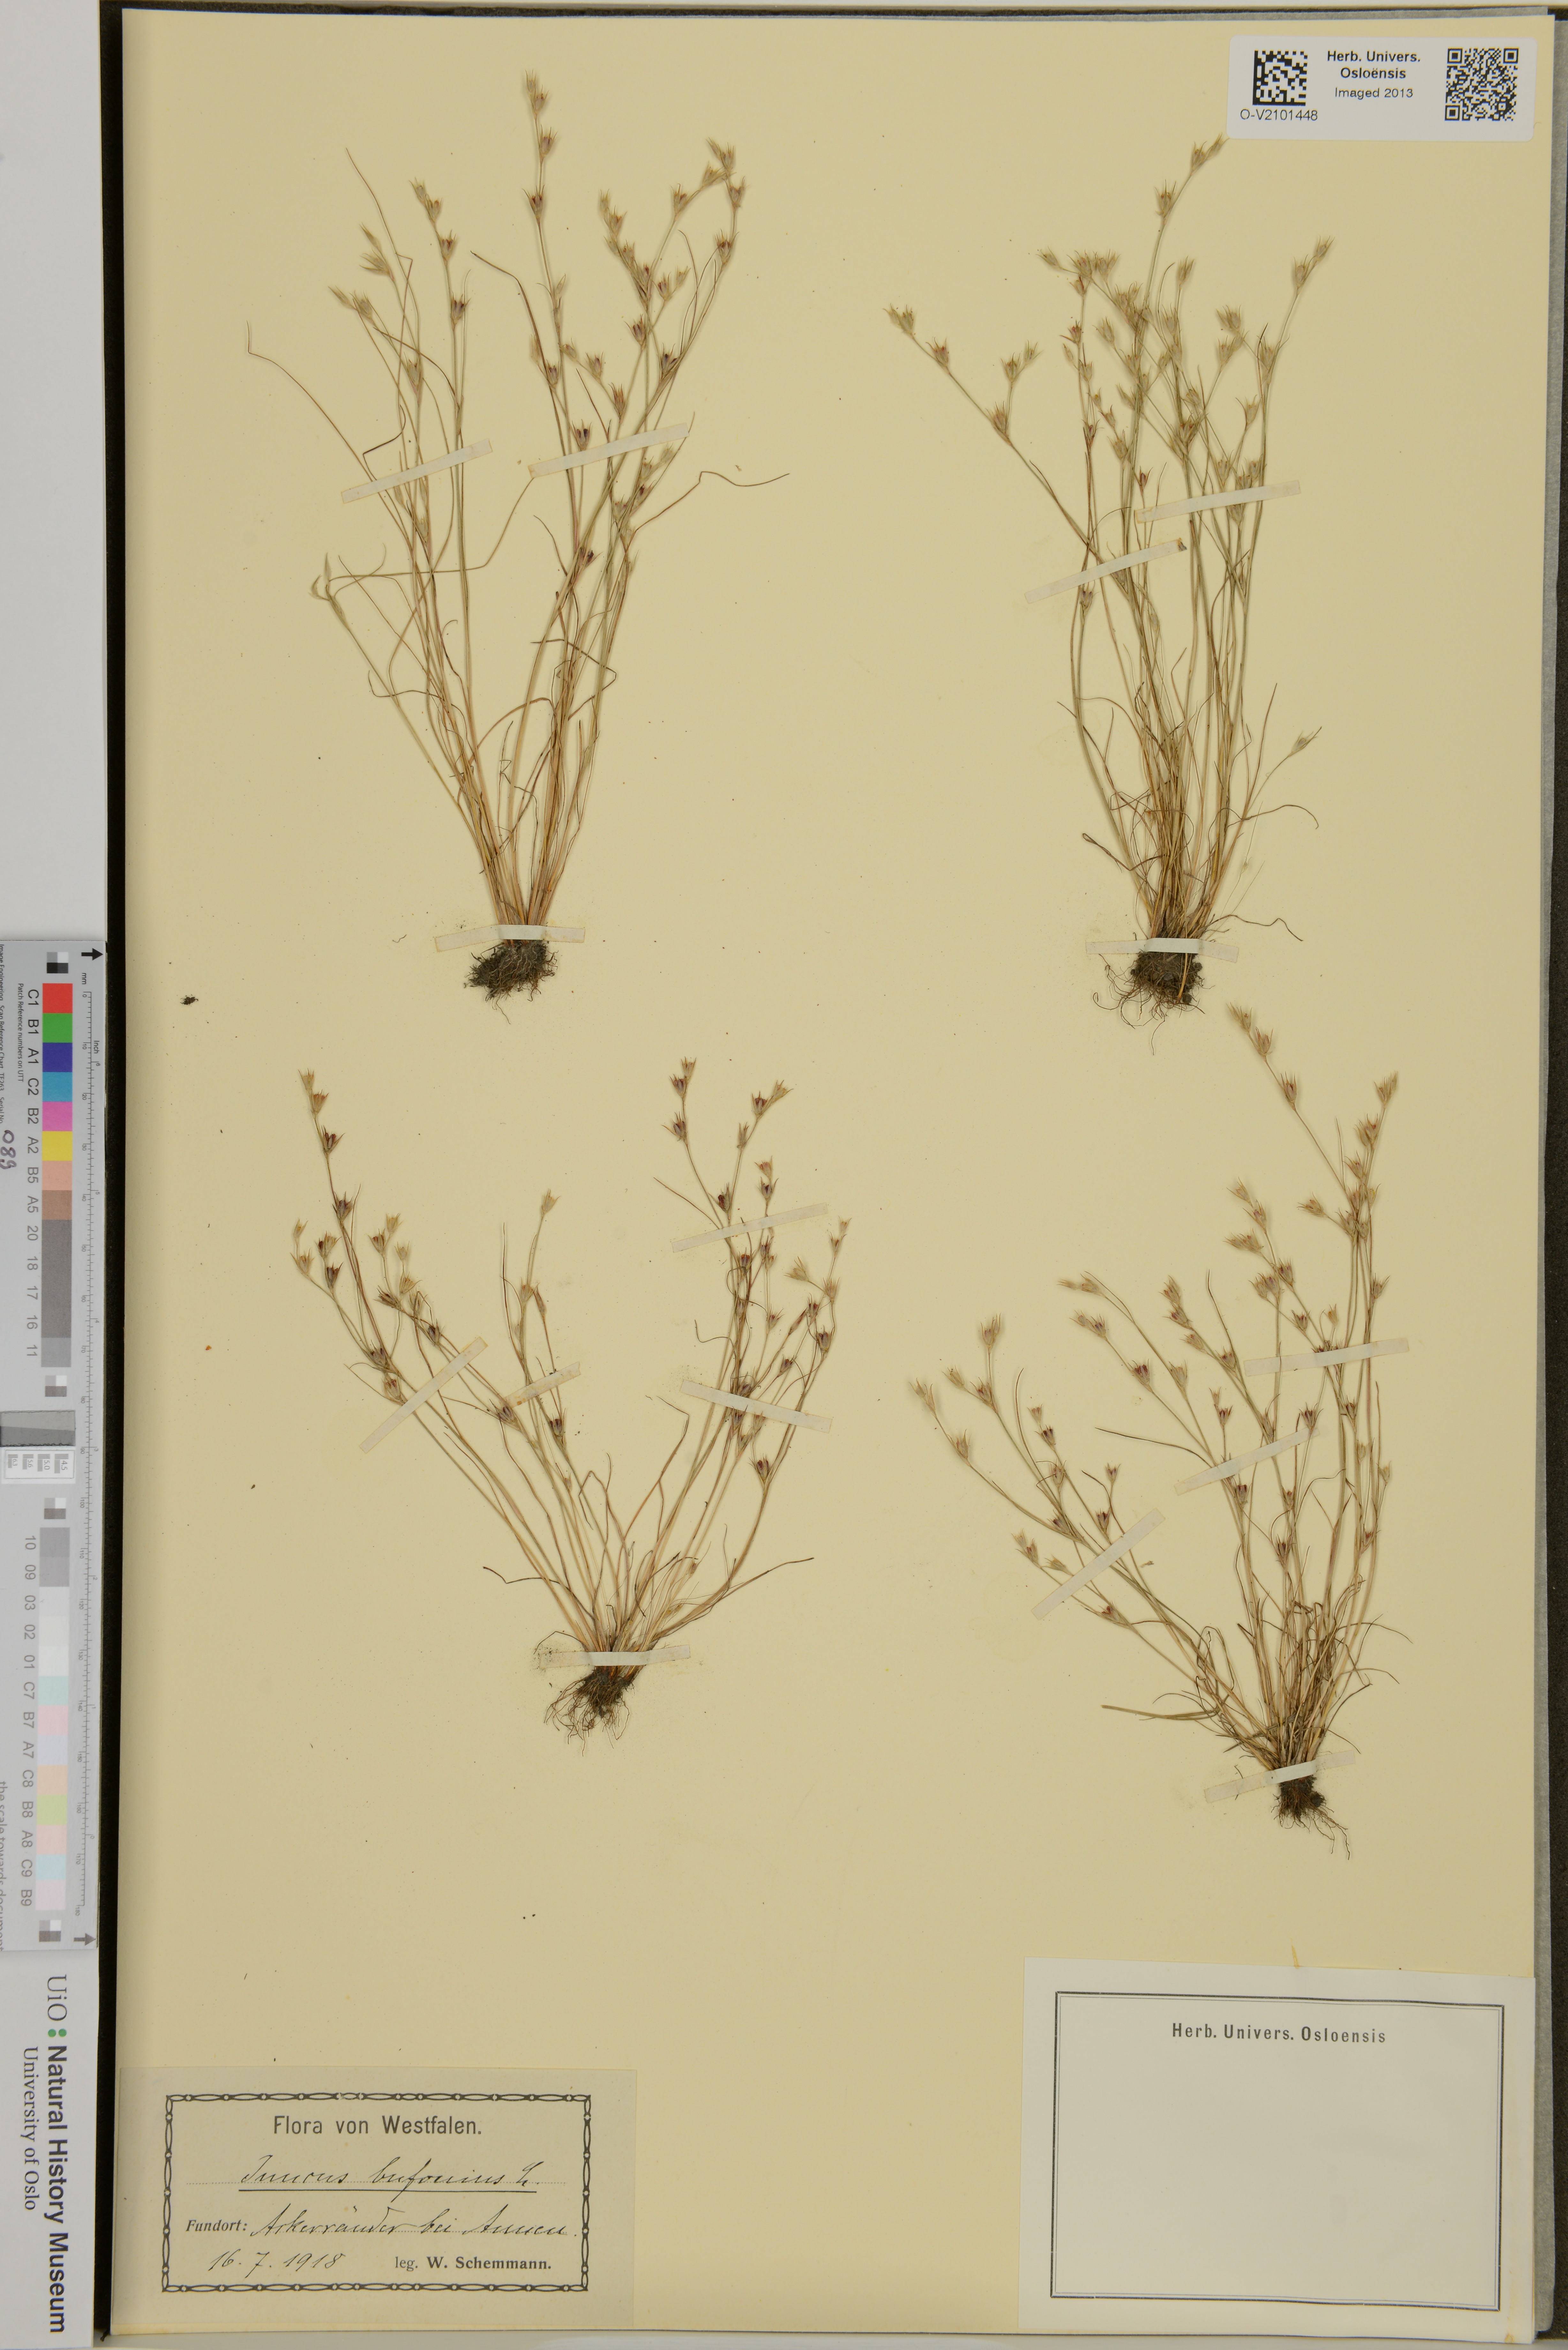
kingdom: Plantae
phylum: Tracheophyta
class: Liliopsida
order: Poales
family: Juncaceae
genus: Juncus
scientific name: Juncus bufonius
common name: Toad rush
